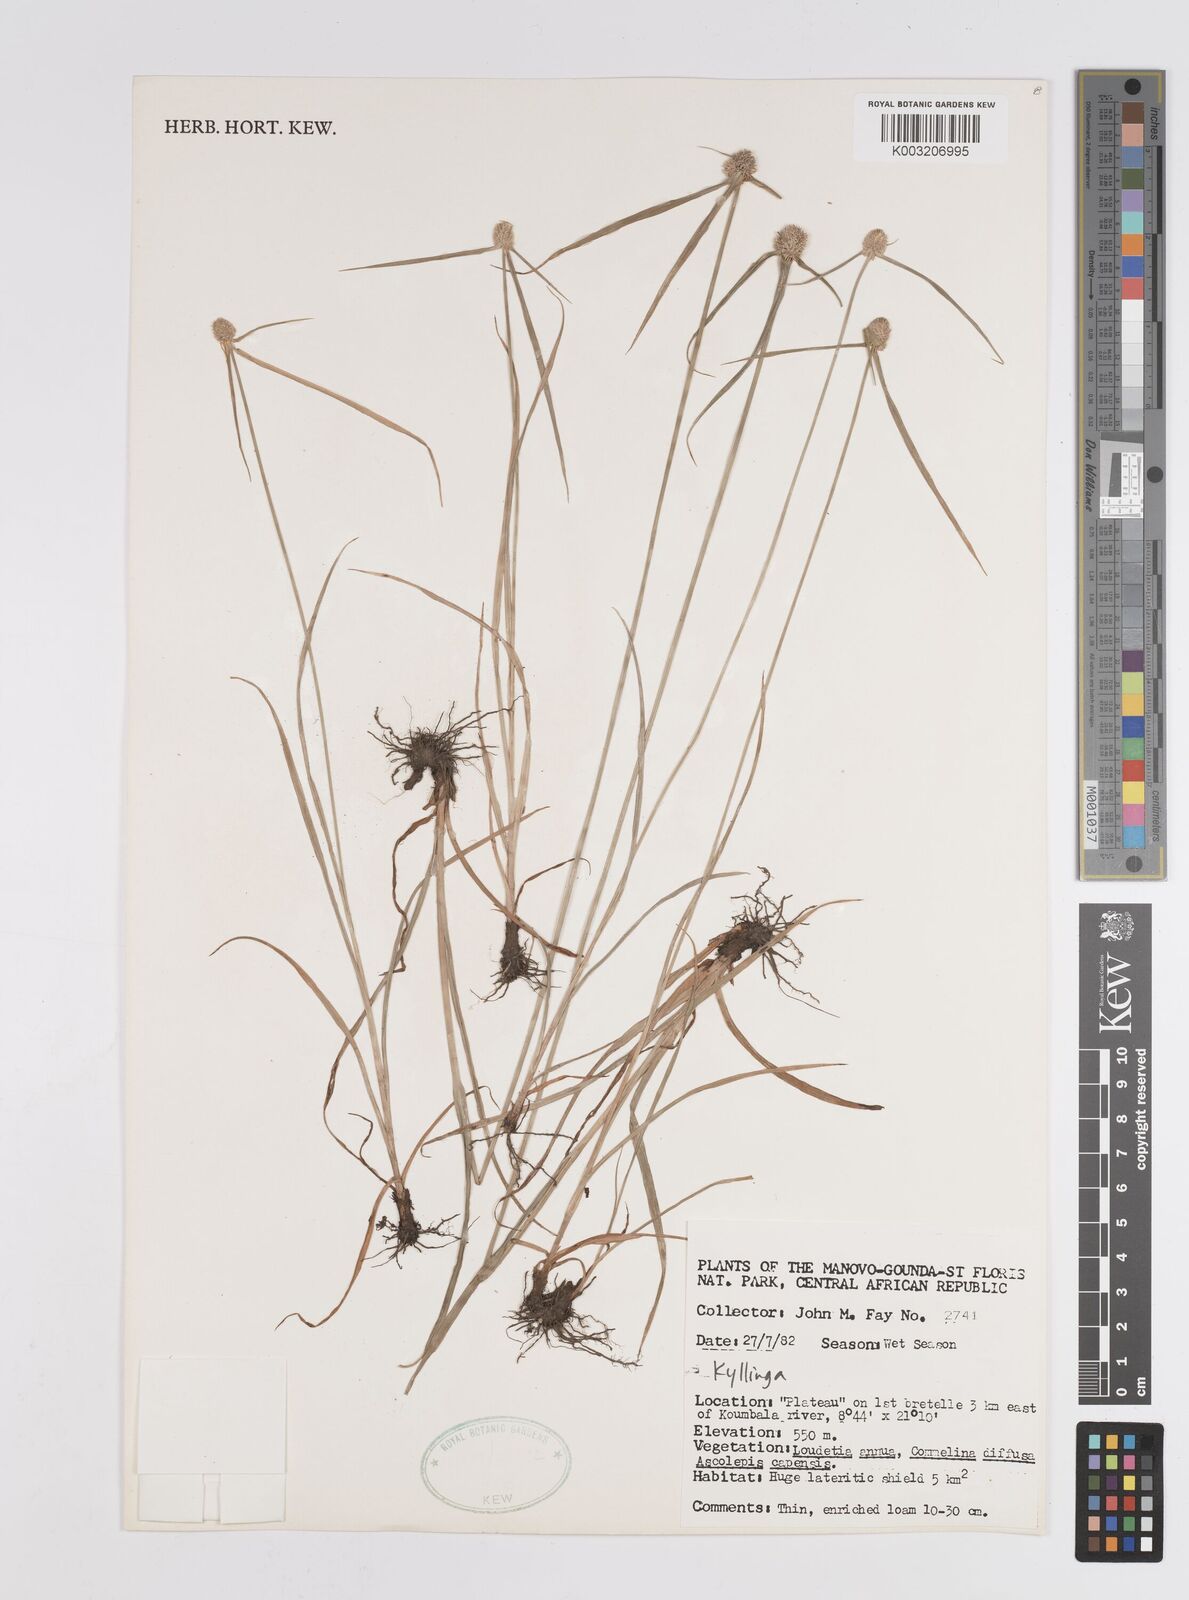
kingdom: Plantae
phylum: Tracheophyta
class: Liliopsida
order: Poales
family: Cyperaceae
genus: Cyperus
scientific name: Cyperus
